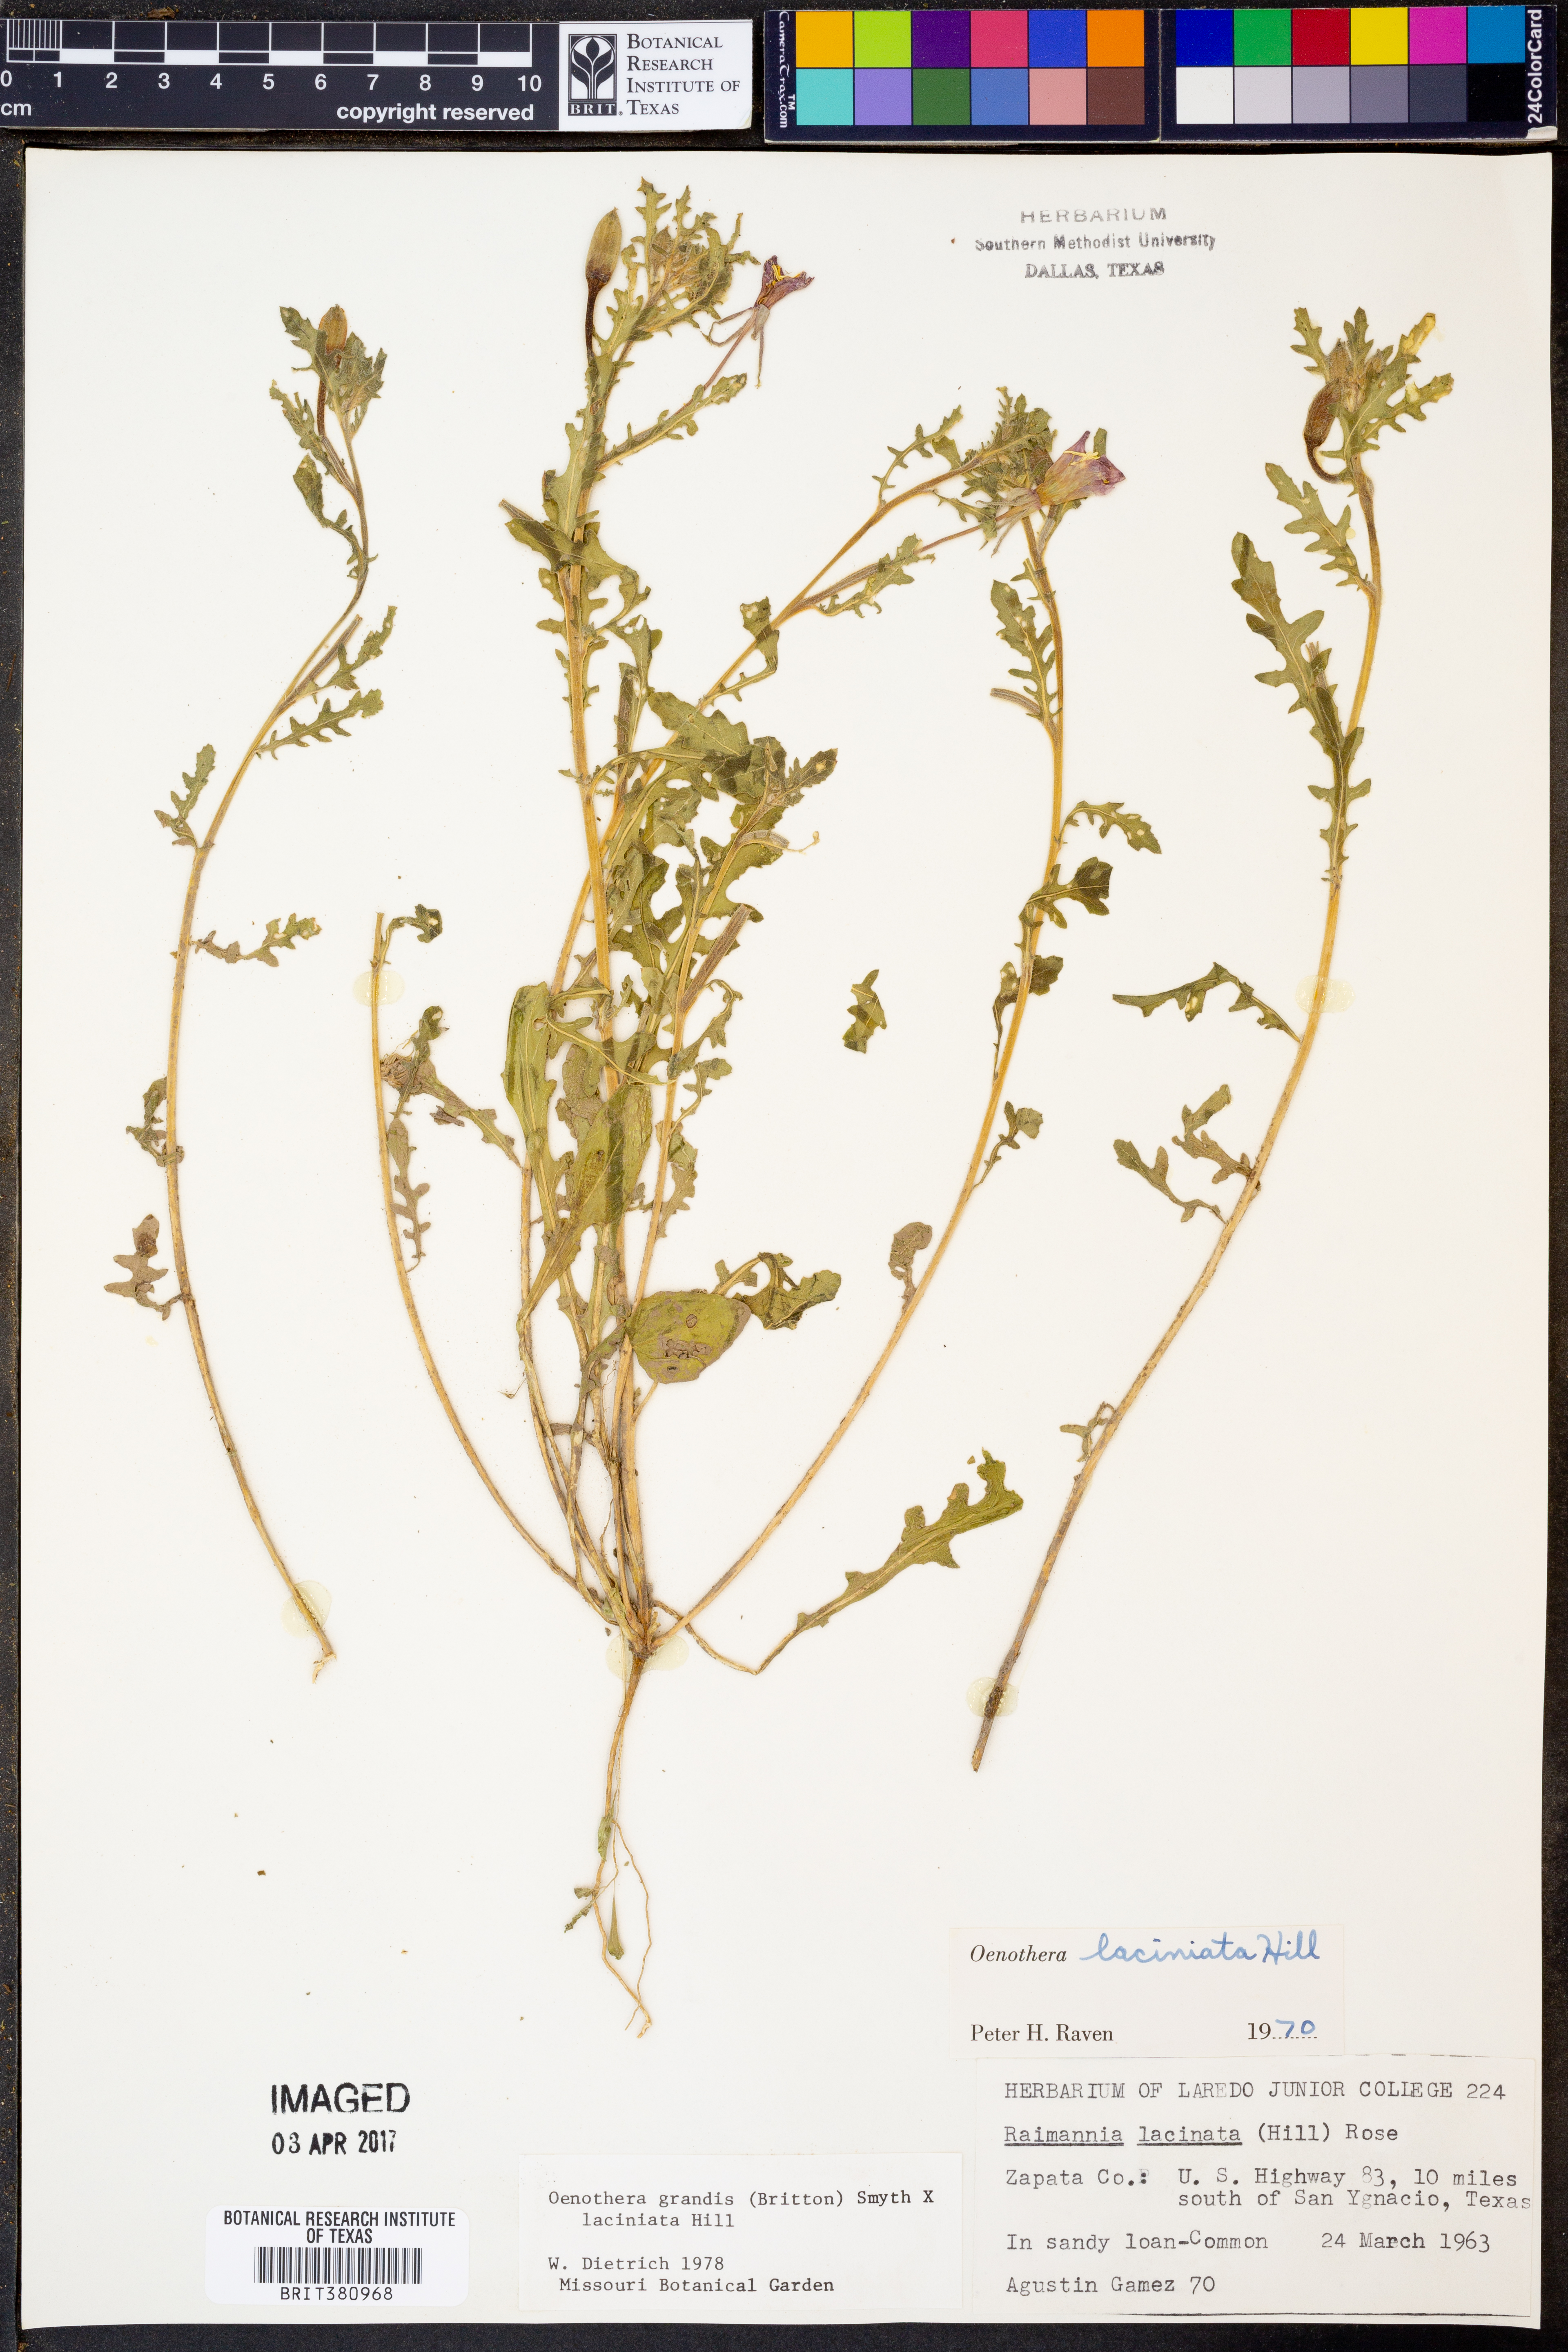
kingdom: Plantae
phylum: Tracheophyta
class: Magnoliopsida
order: Myrtales
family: Onagraceae
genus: Oenothera
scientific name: Oenothera grandis
